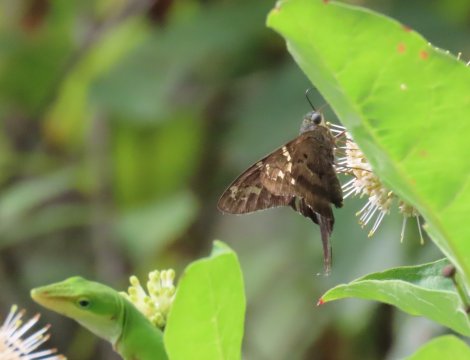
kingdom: Animalia
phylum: Arthropoda
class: Insecta
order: Lepidoptera
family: Hesperiidae
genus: Urbanus
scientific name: Urbanus proteus
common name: Long-tailed Skipper
